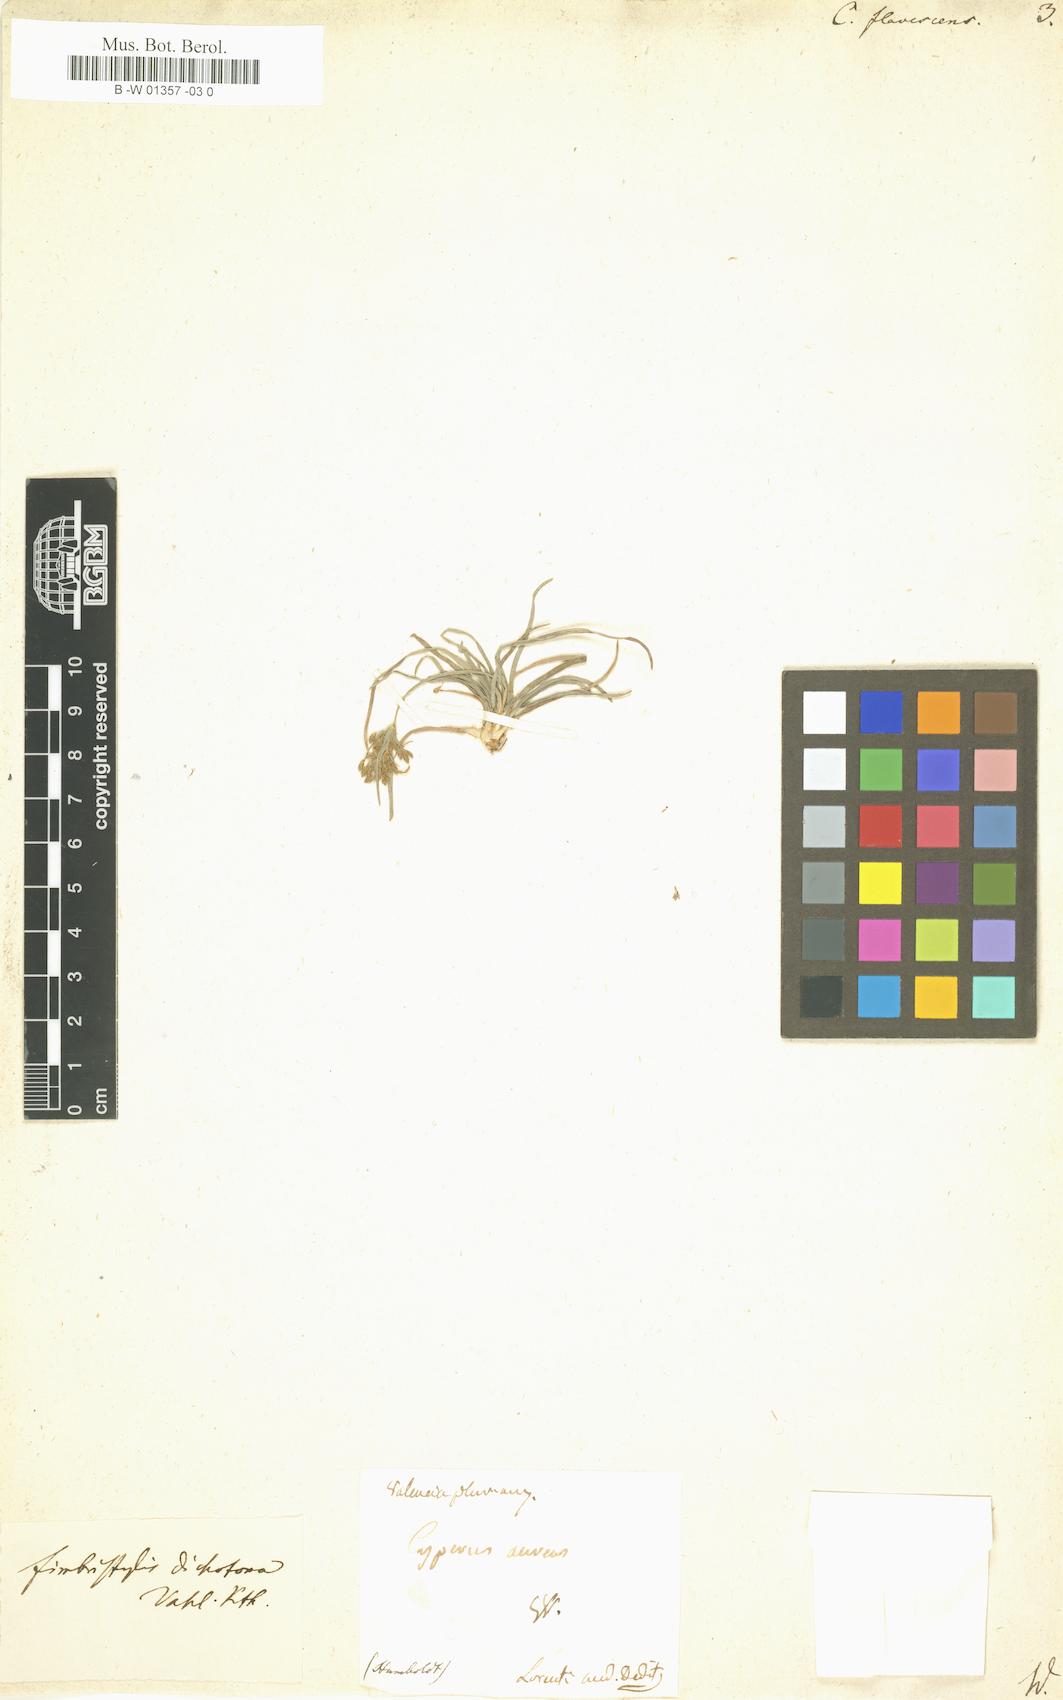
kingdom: Plantae
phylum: Tracheophyta
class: Liliopsida
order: Poales
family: Cyperaceae
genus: Cyperus
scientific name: Cyperus flavescens
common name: Yellow galingale
